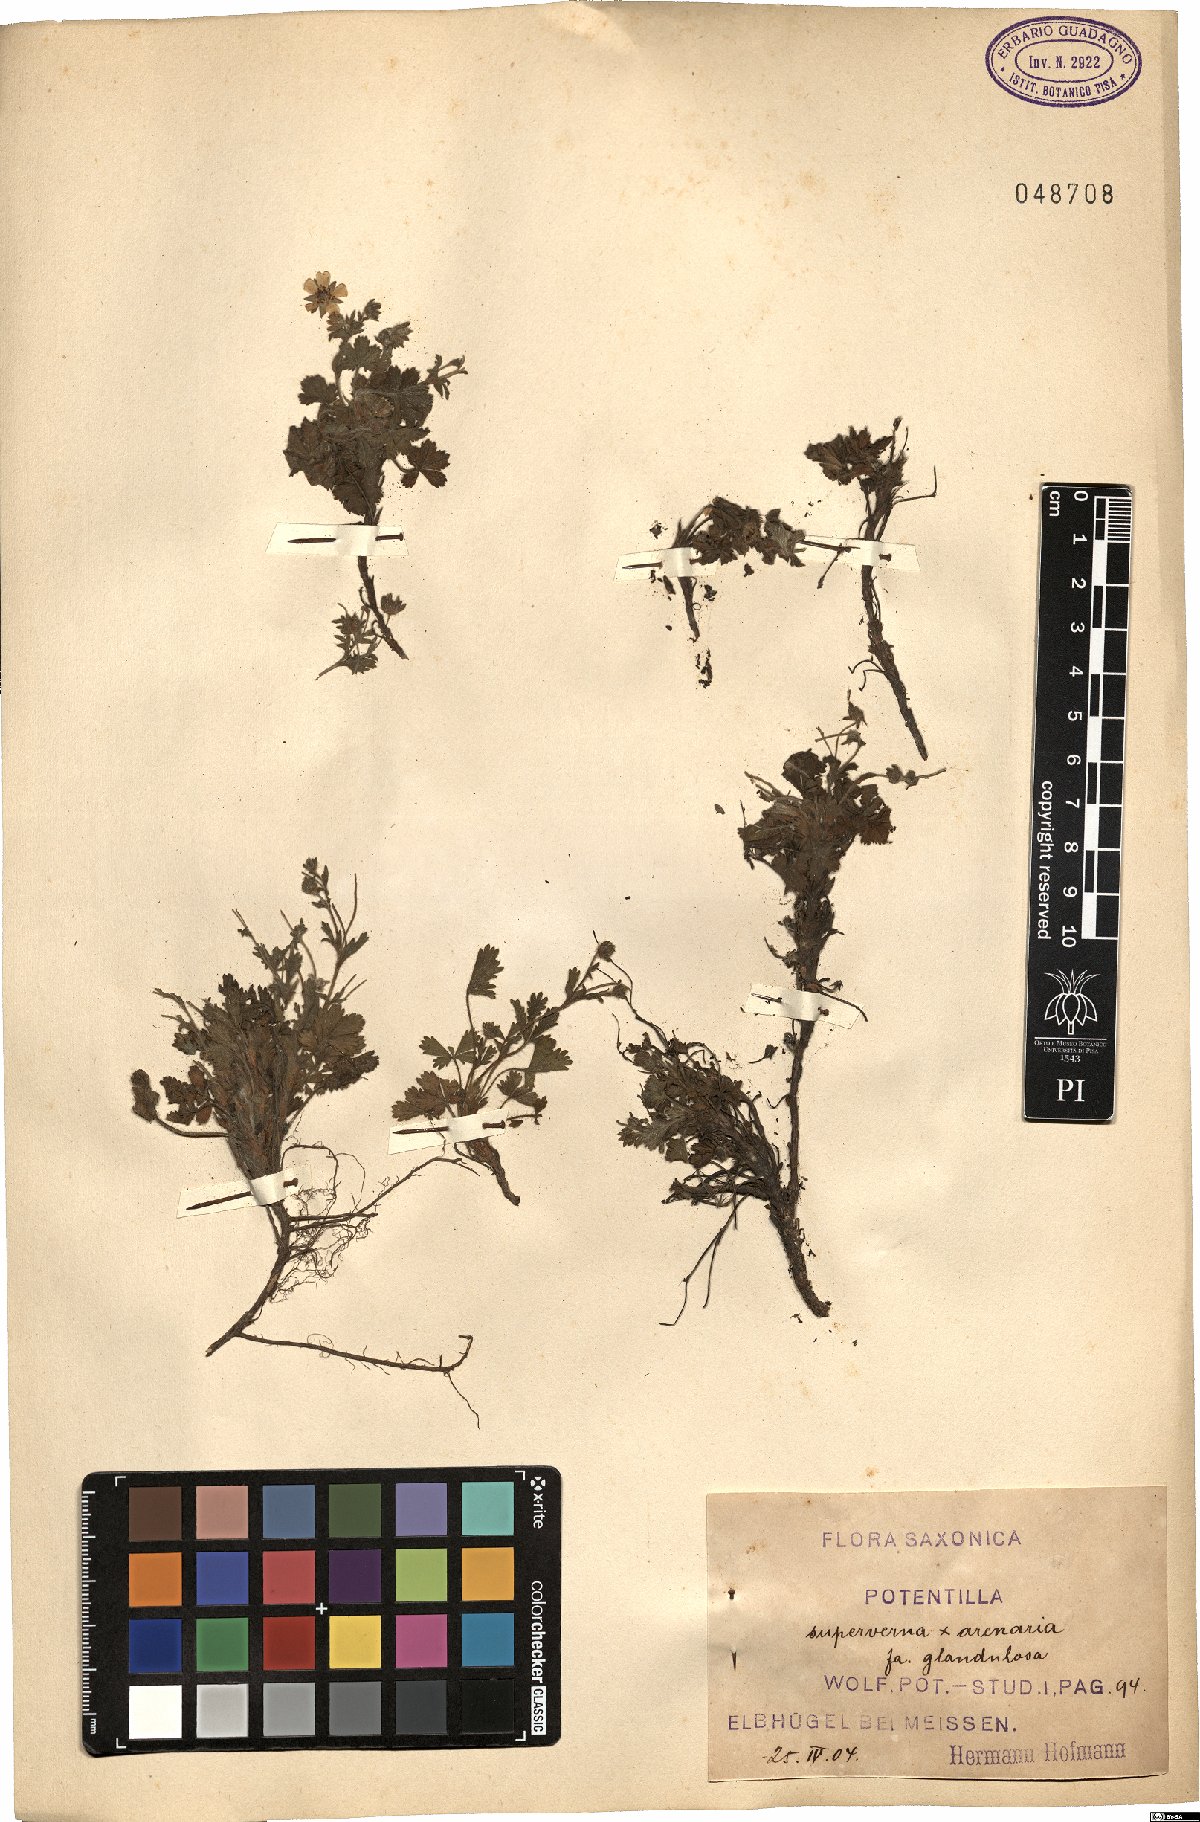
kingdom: Plantae
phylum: Tracheophyta
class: Magnoliopsida
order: Rosales
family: Rosaceae
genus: Potentilla
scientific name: Potentilla cinerea
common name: Ashy cinquefoil
